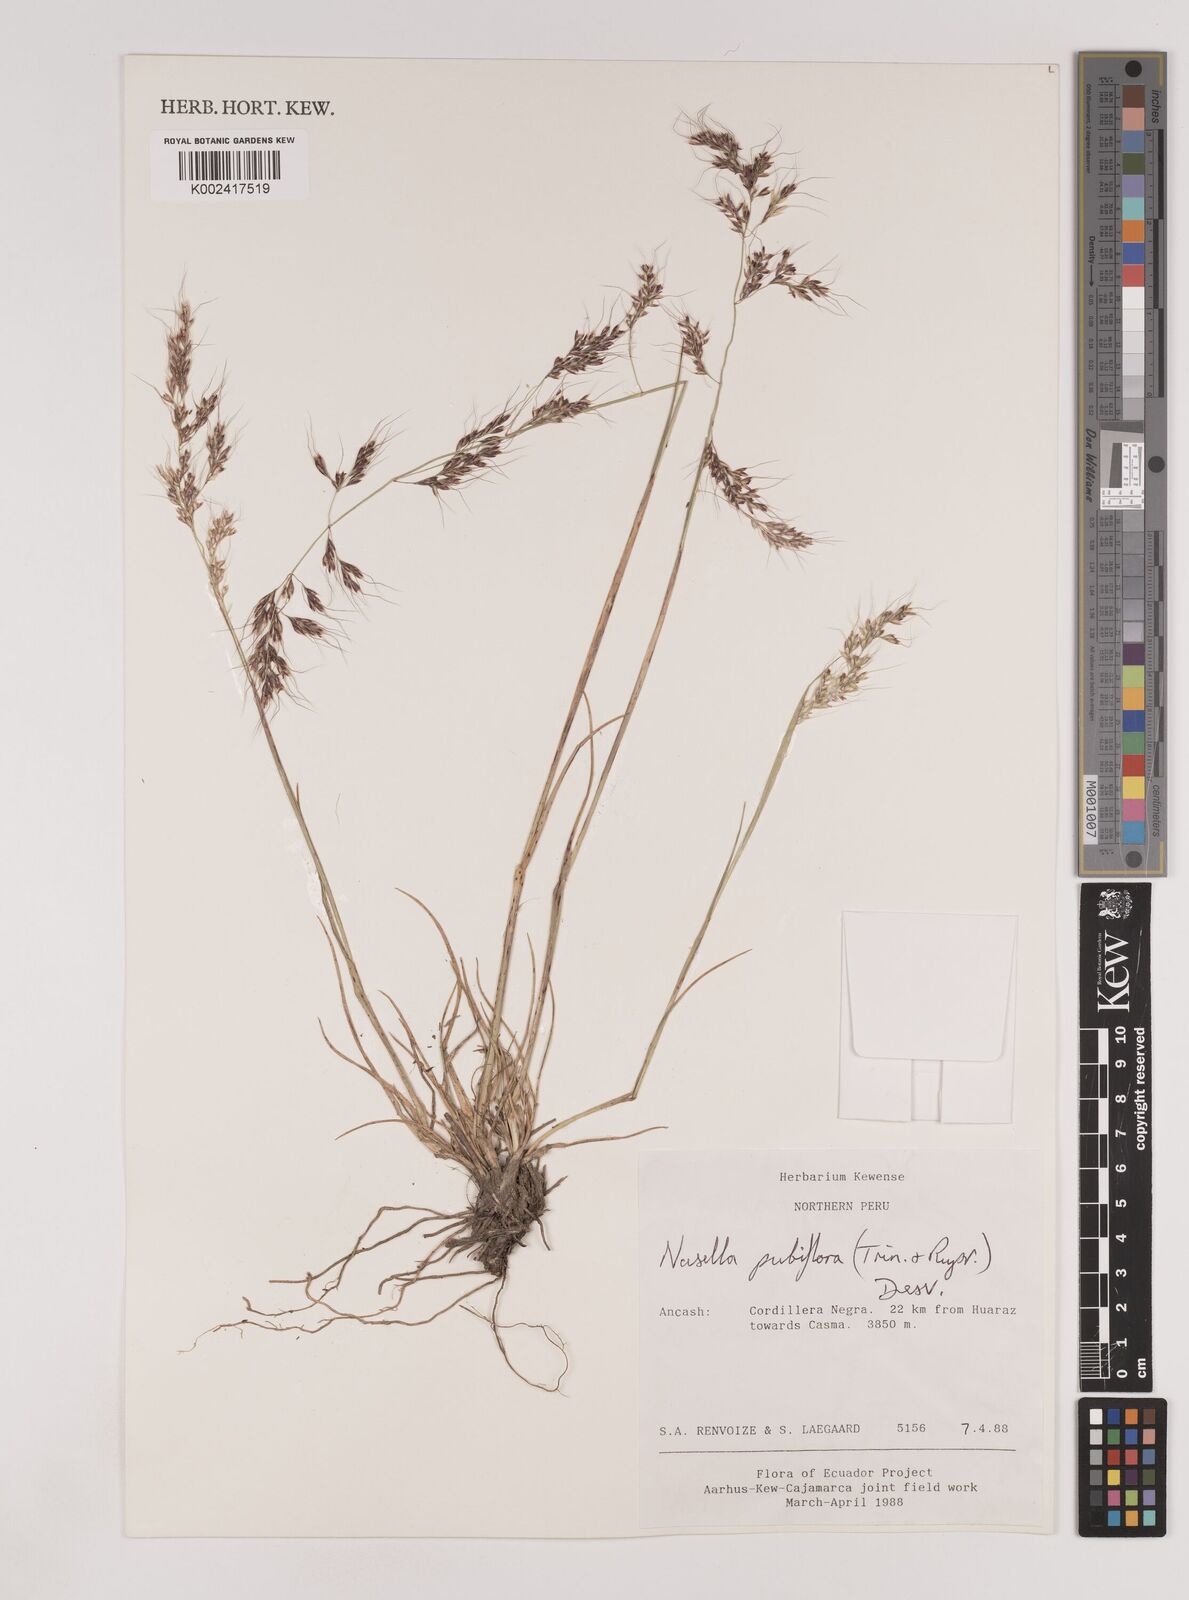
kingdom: Plantae
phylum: Tracheophyta
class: Liliopsida
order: Poales
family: Poaceae
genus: Nassella
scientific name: Nassella pubiflora
